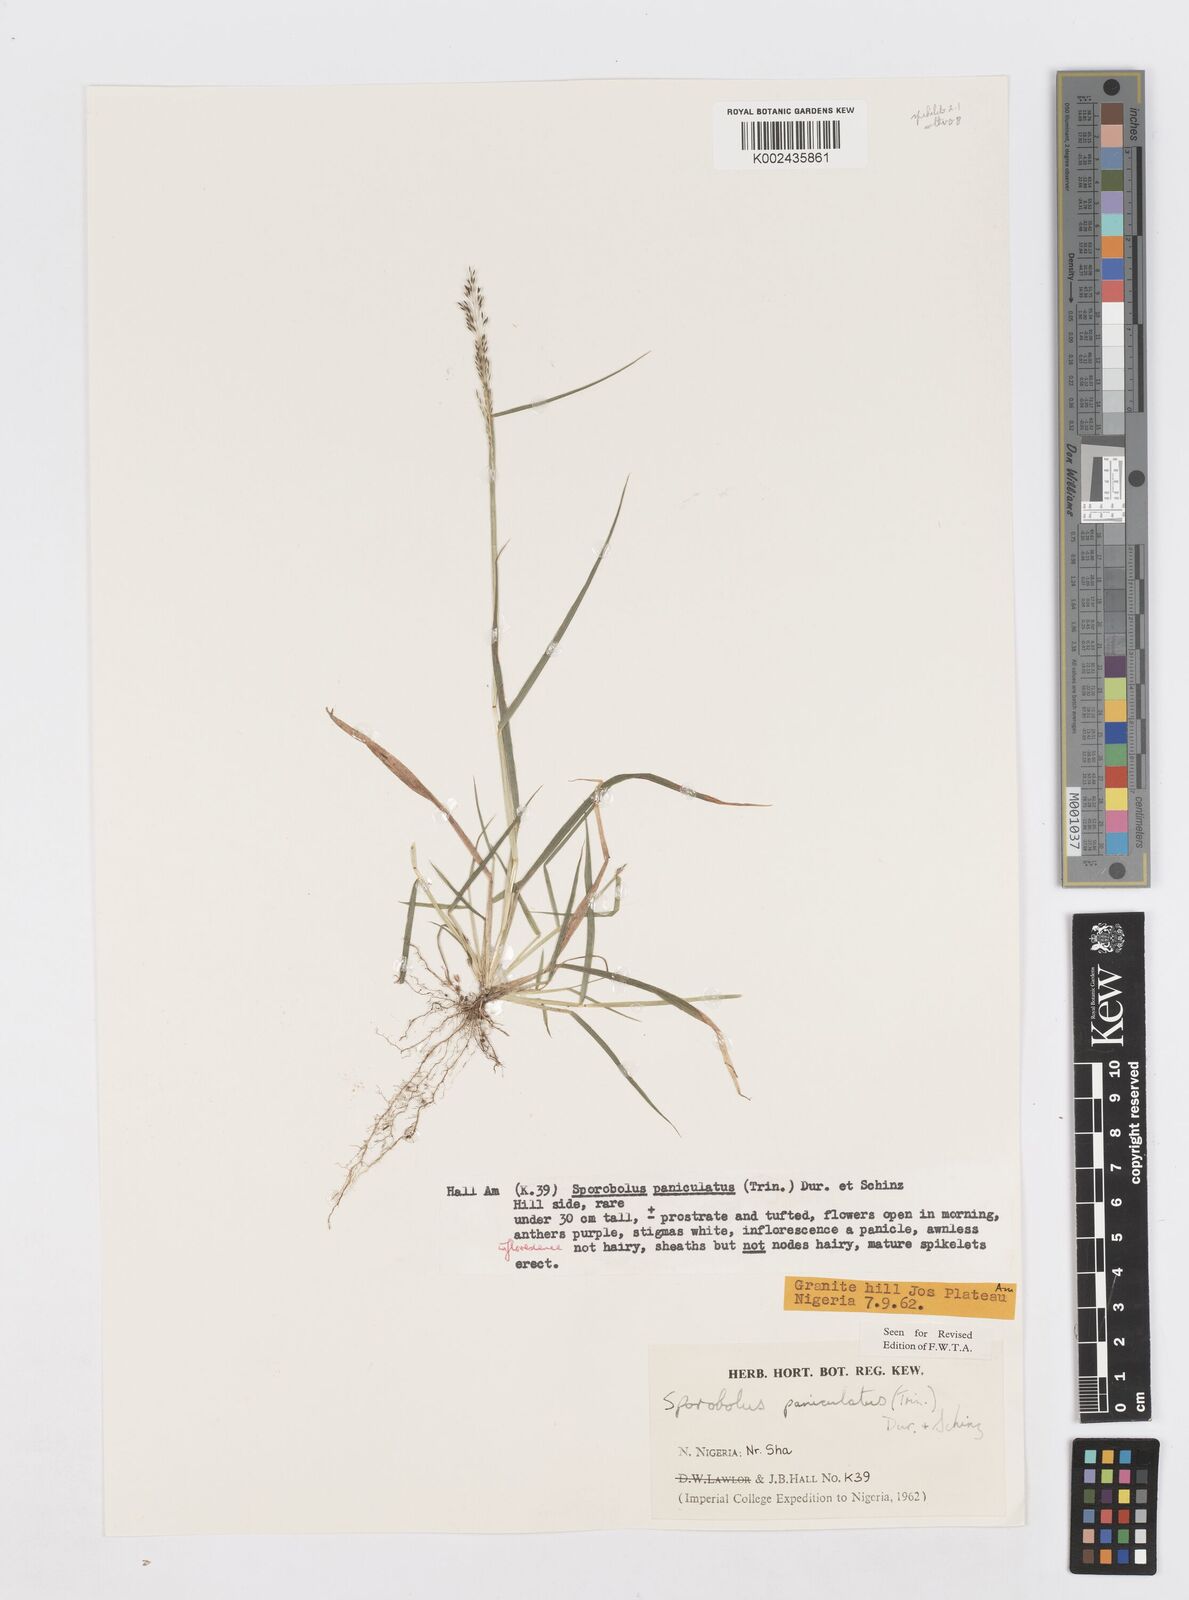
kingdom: Plantae
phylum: Tracheophyta
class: Liliopsida
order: Poales
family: Poaceae
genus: Sporobolus
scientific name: Sporobolus paniculatus
